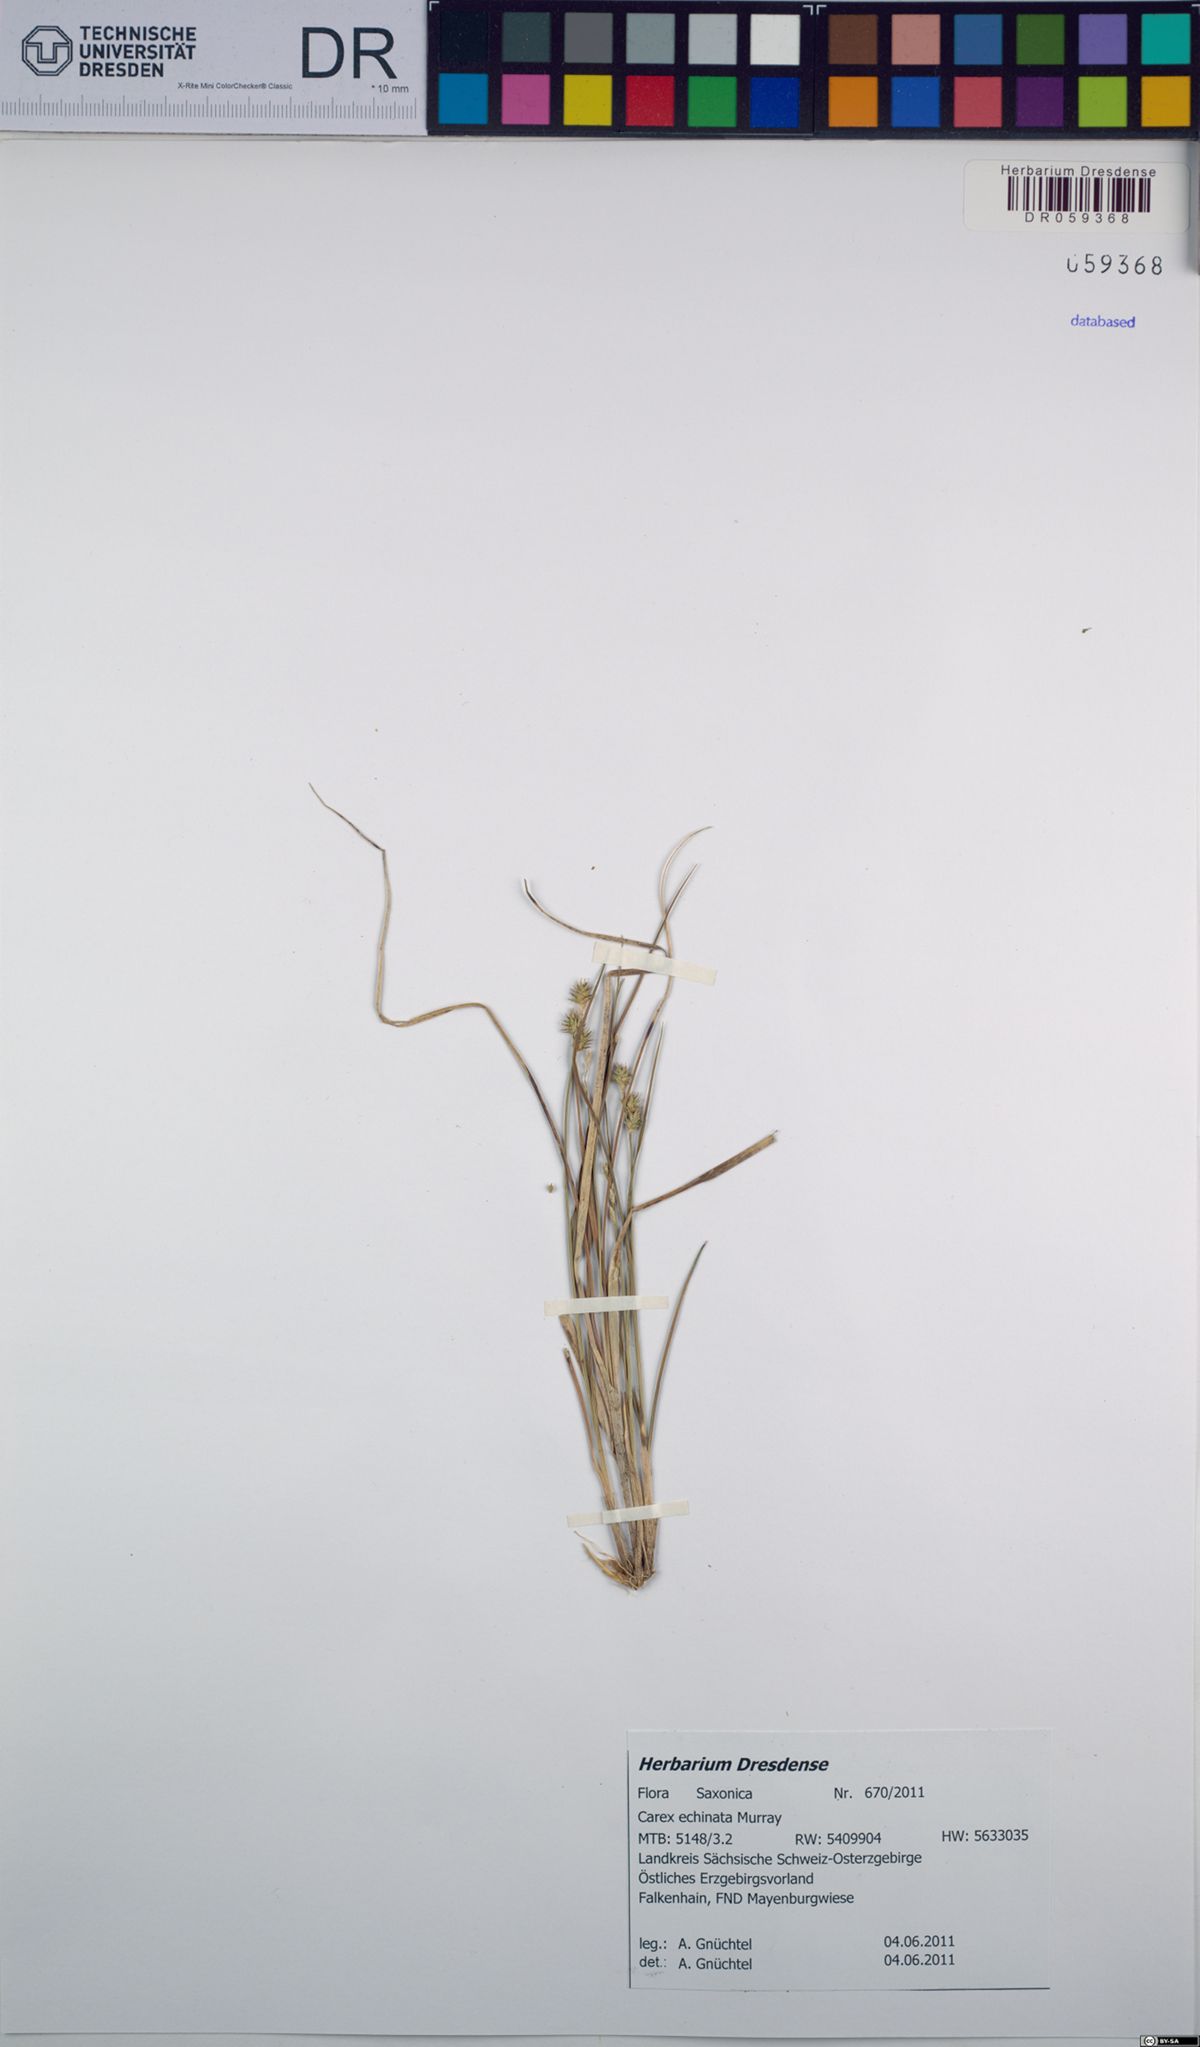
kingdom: Plantae
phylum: Tracheophyta
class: Liliopsida
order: Poales
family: Cyperaceae
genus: Carex
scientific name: Carex echinata
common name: Star sedge
